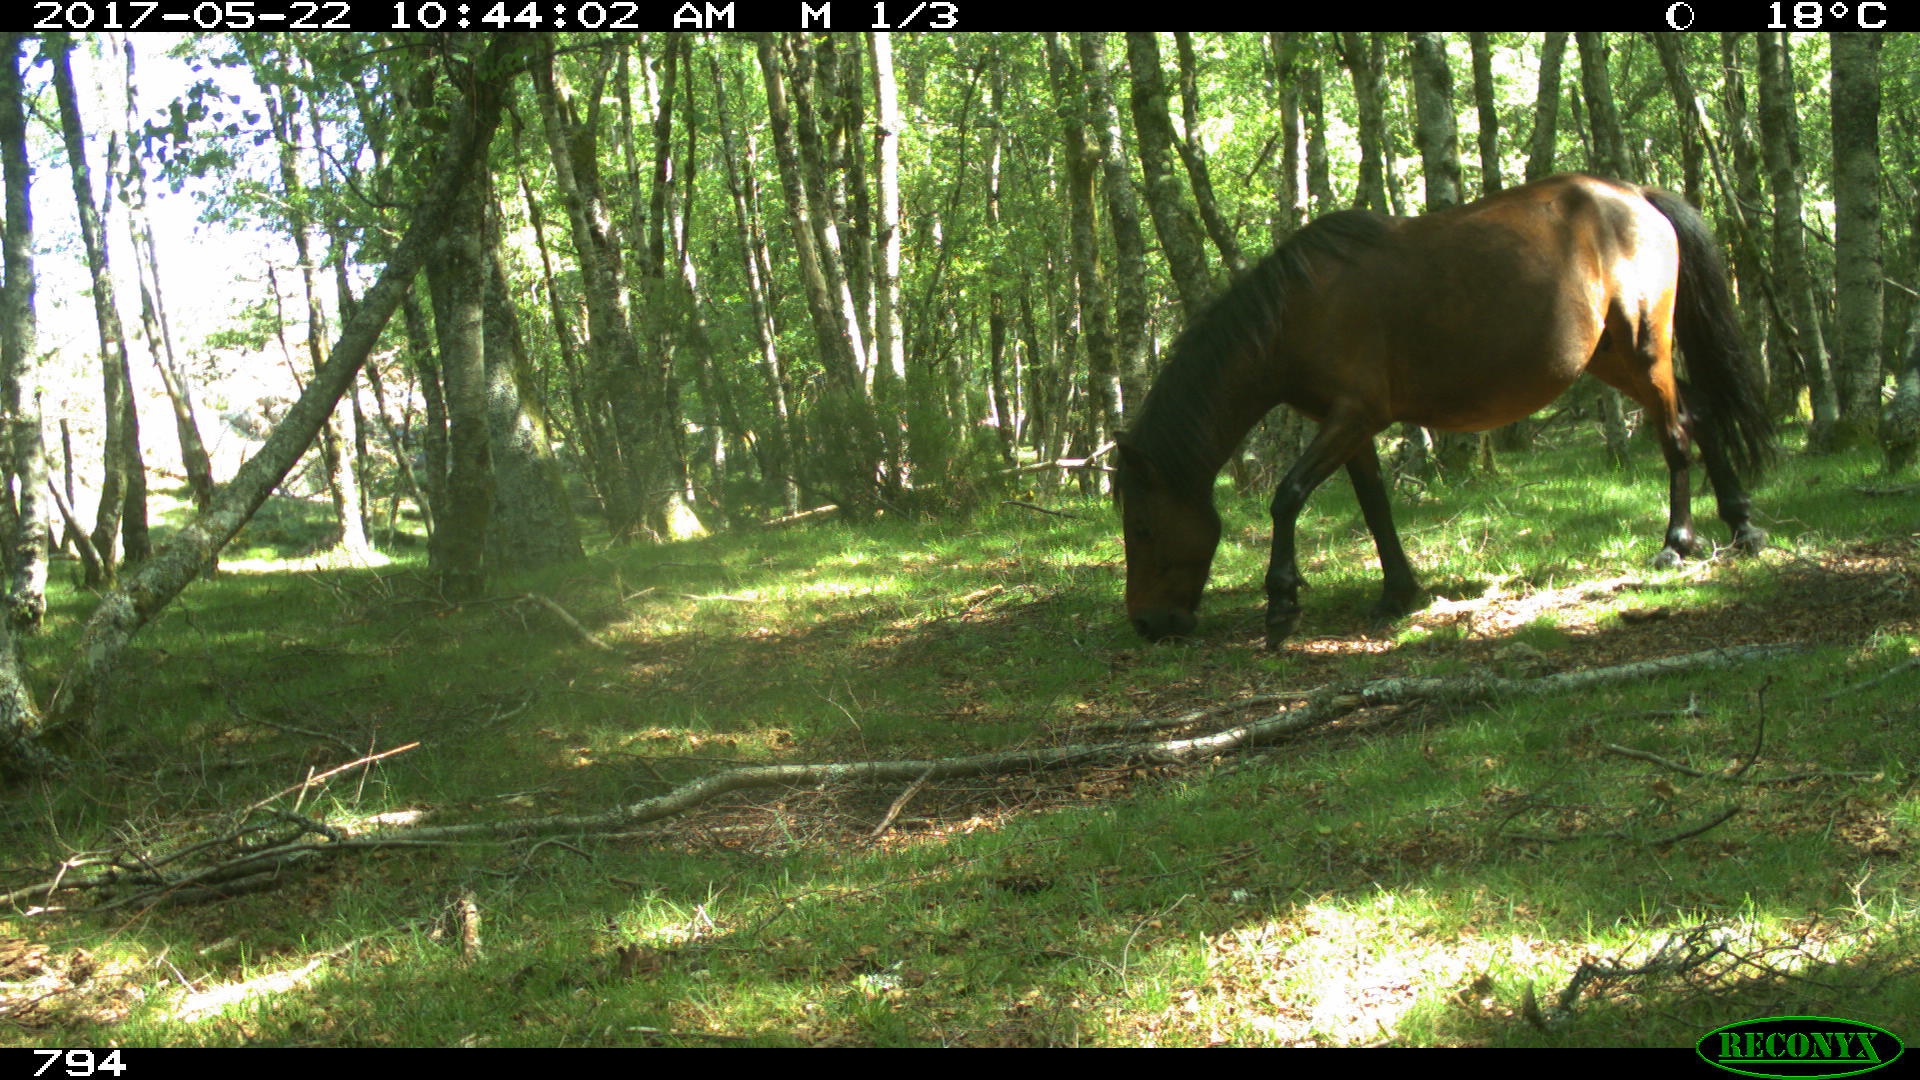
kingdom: Animalia
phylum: Chordata
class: Mammalia
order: Perissodactyla
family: Equidae
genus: Equus
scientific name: Equus caballus
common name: Horse
